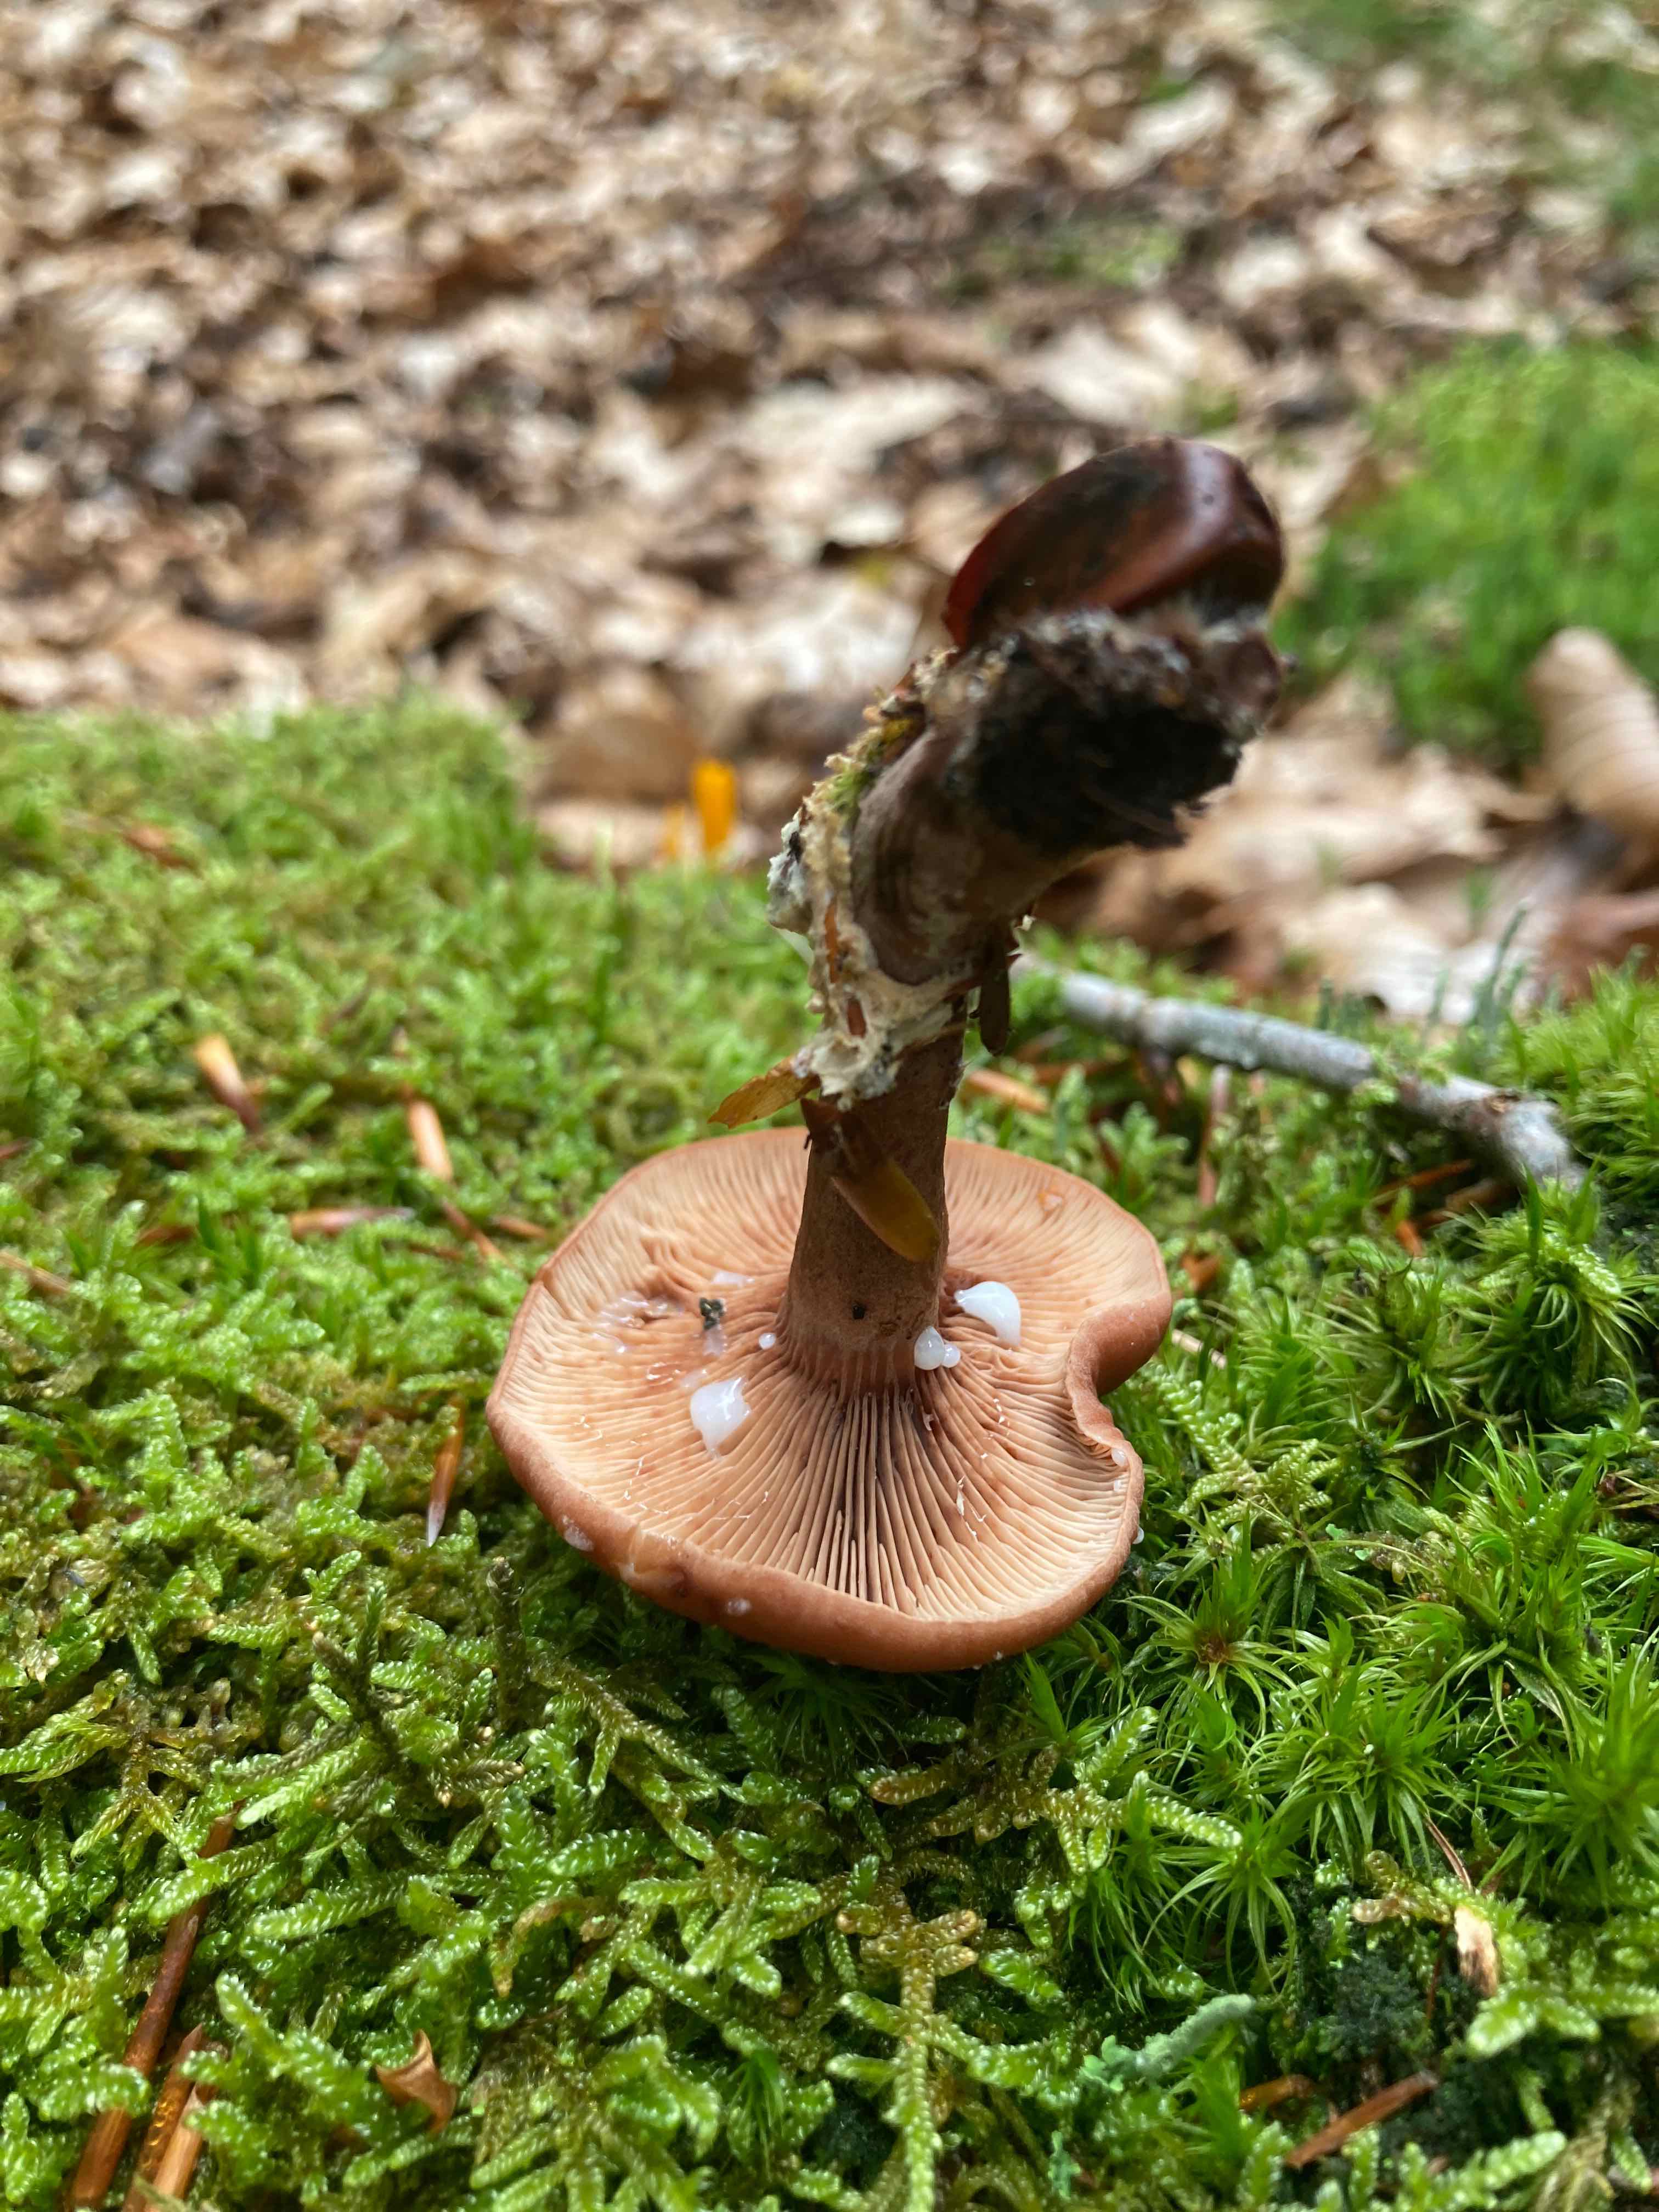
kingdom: Fungi
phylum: Basidiomycota
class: Agaricomycetes
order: Russulales
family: Russulaceae
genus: Lactarius
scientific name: Lactarius camphoratus
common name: kamfer-mælkehat
